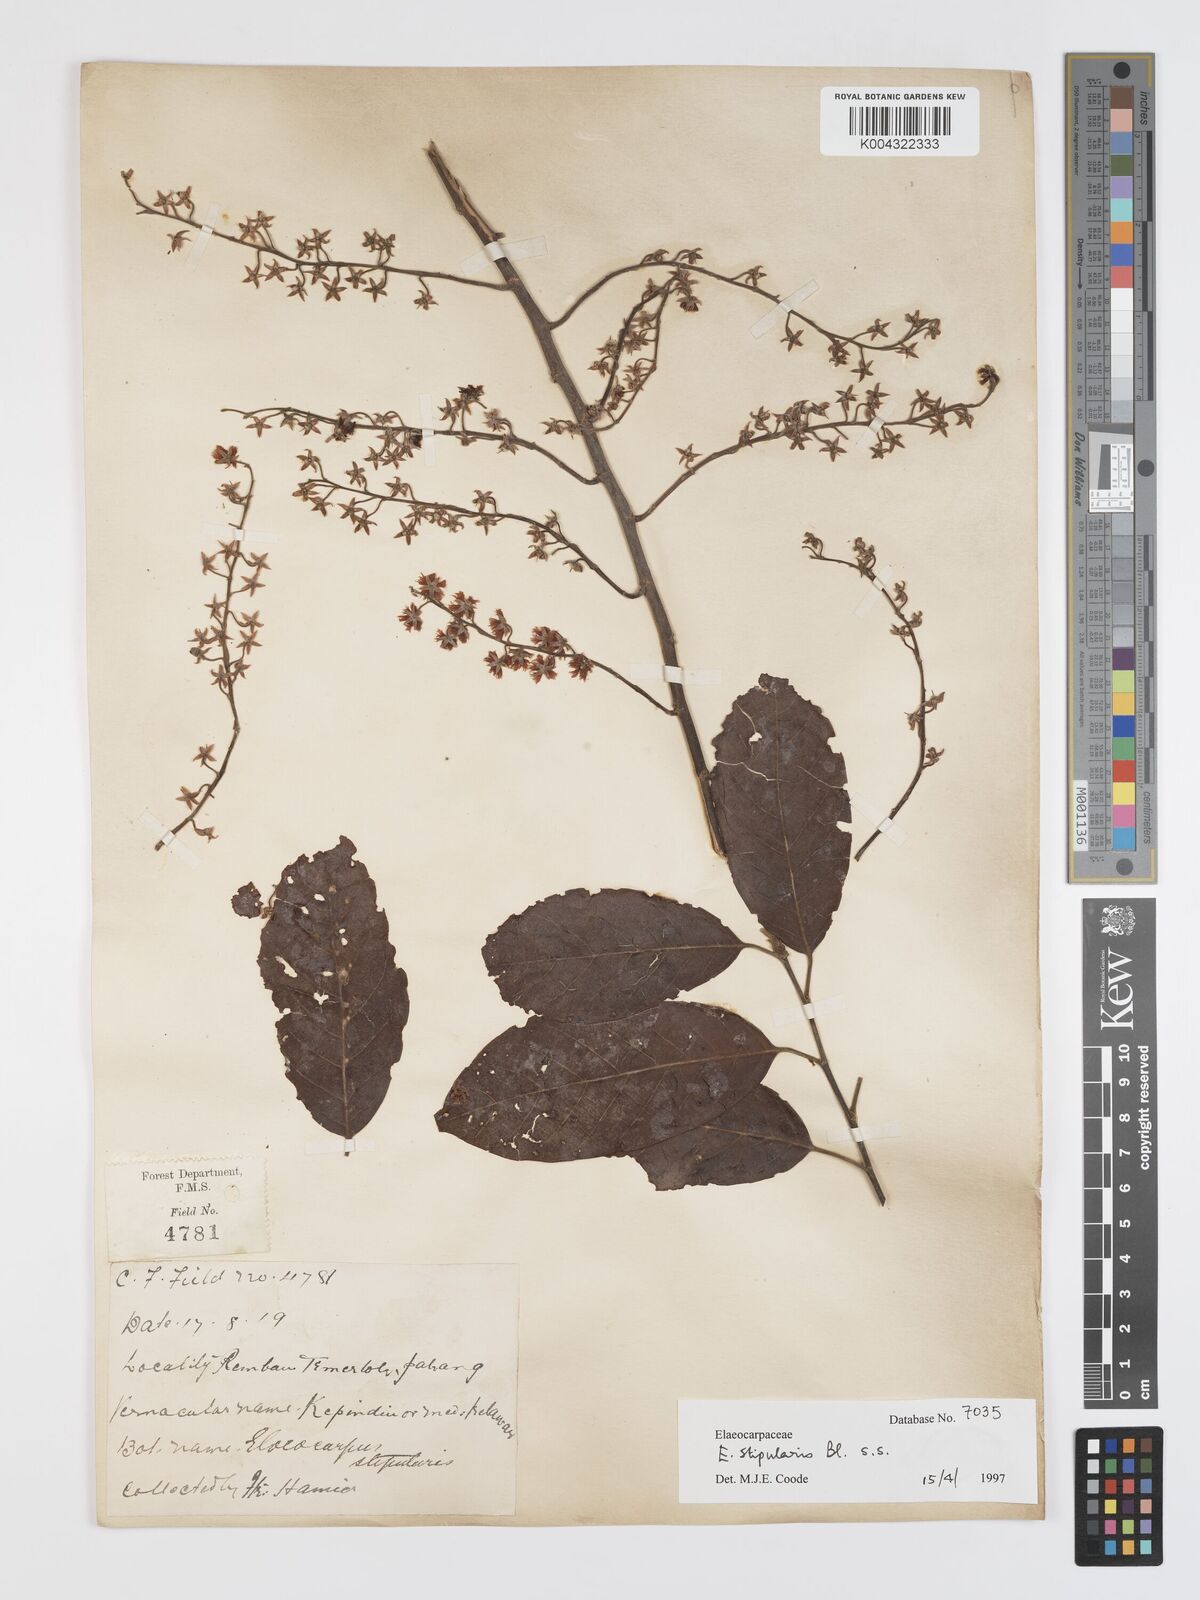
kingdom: Plantae
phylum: Tracheophyta
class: Magnoliopsida
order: Oxalidales
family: Elaeocarpaceae
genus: Elaeocarpus
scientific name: Elaeocarpus stipularis
